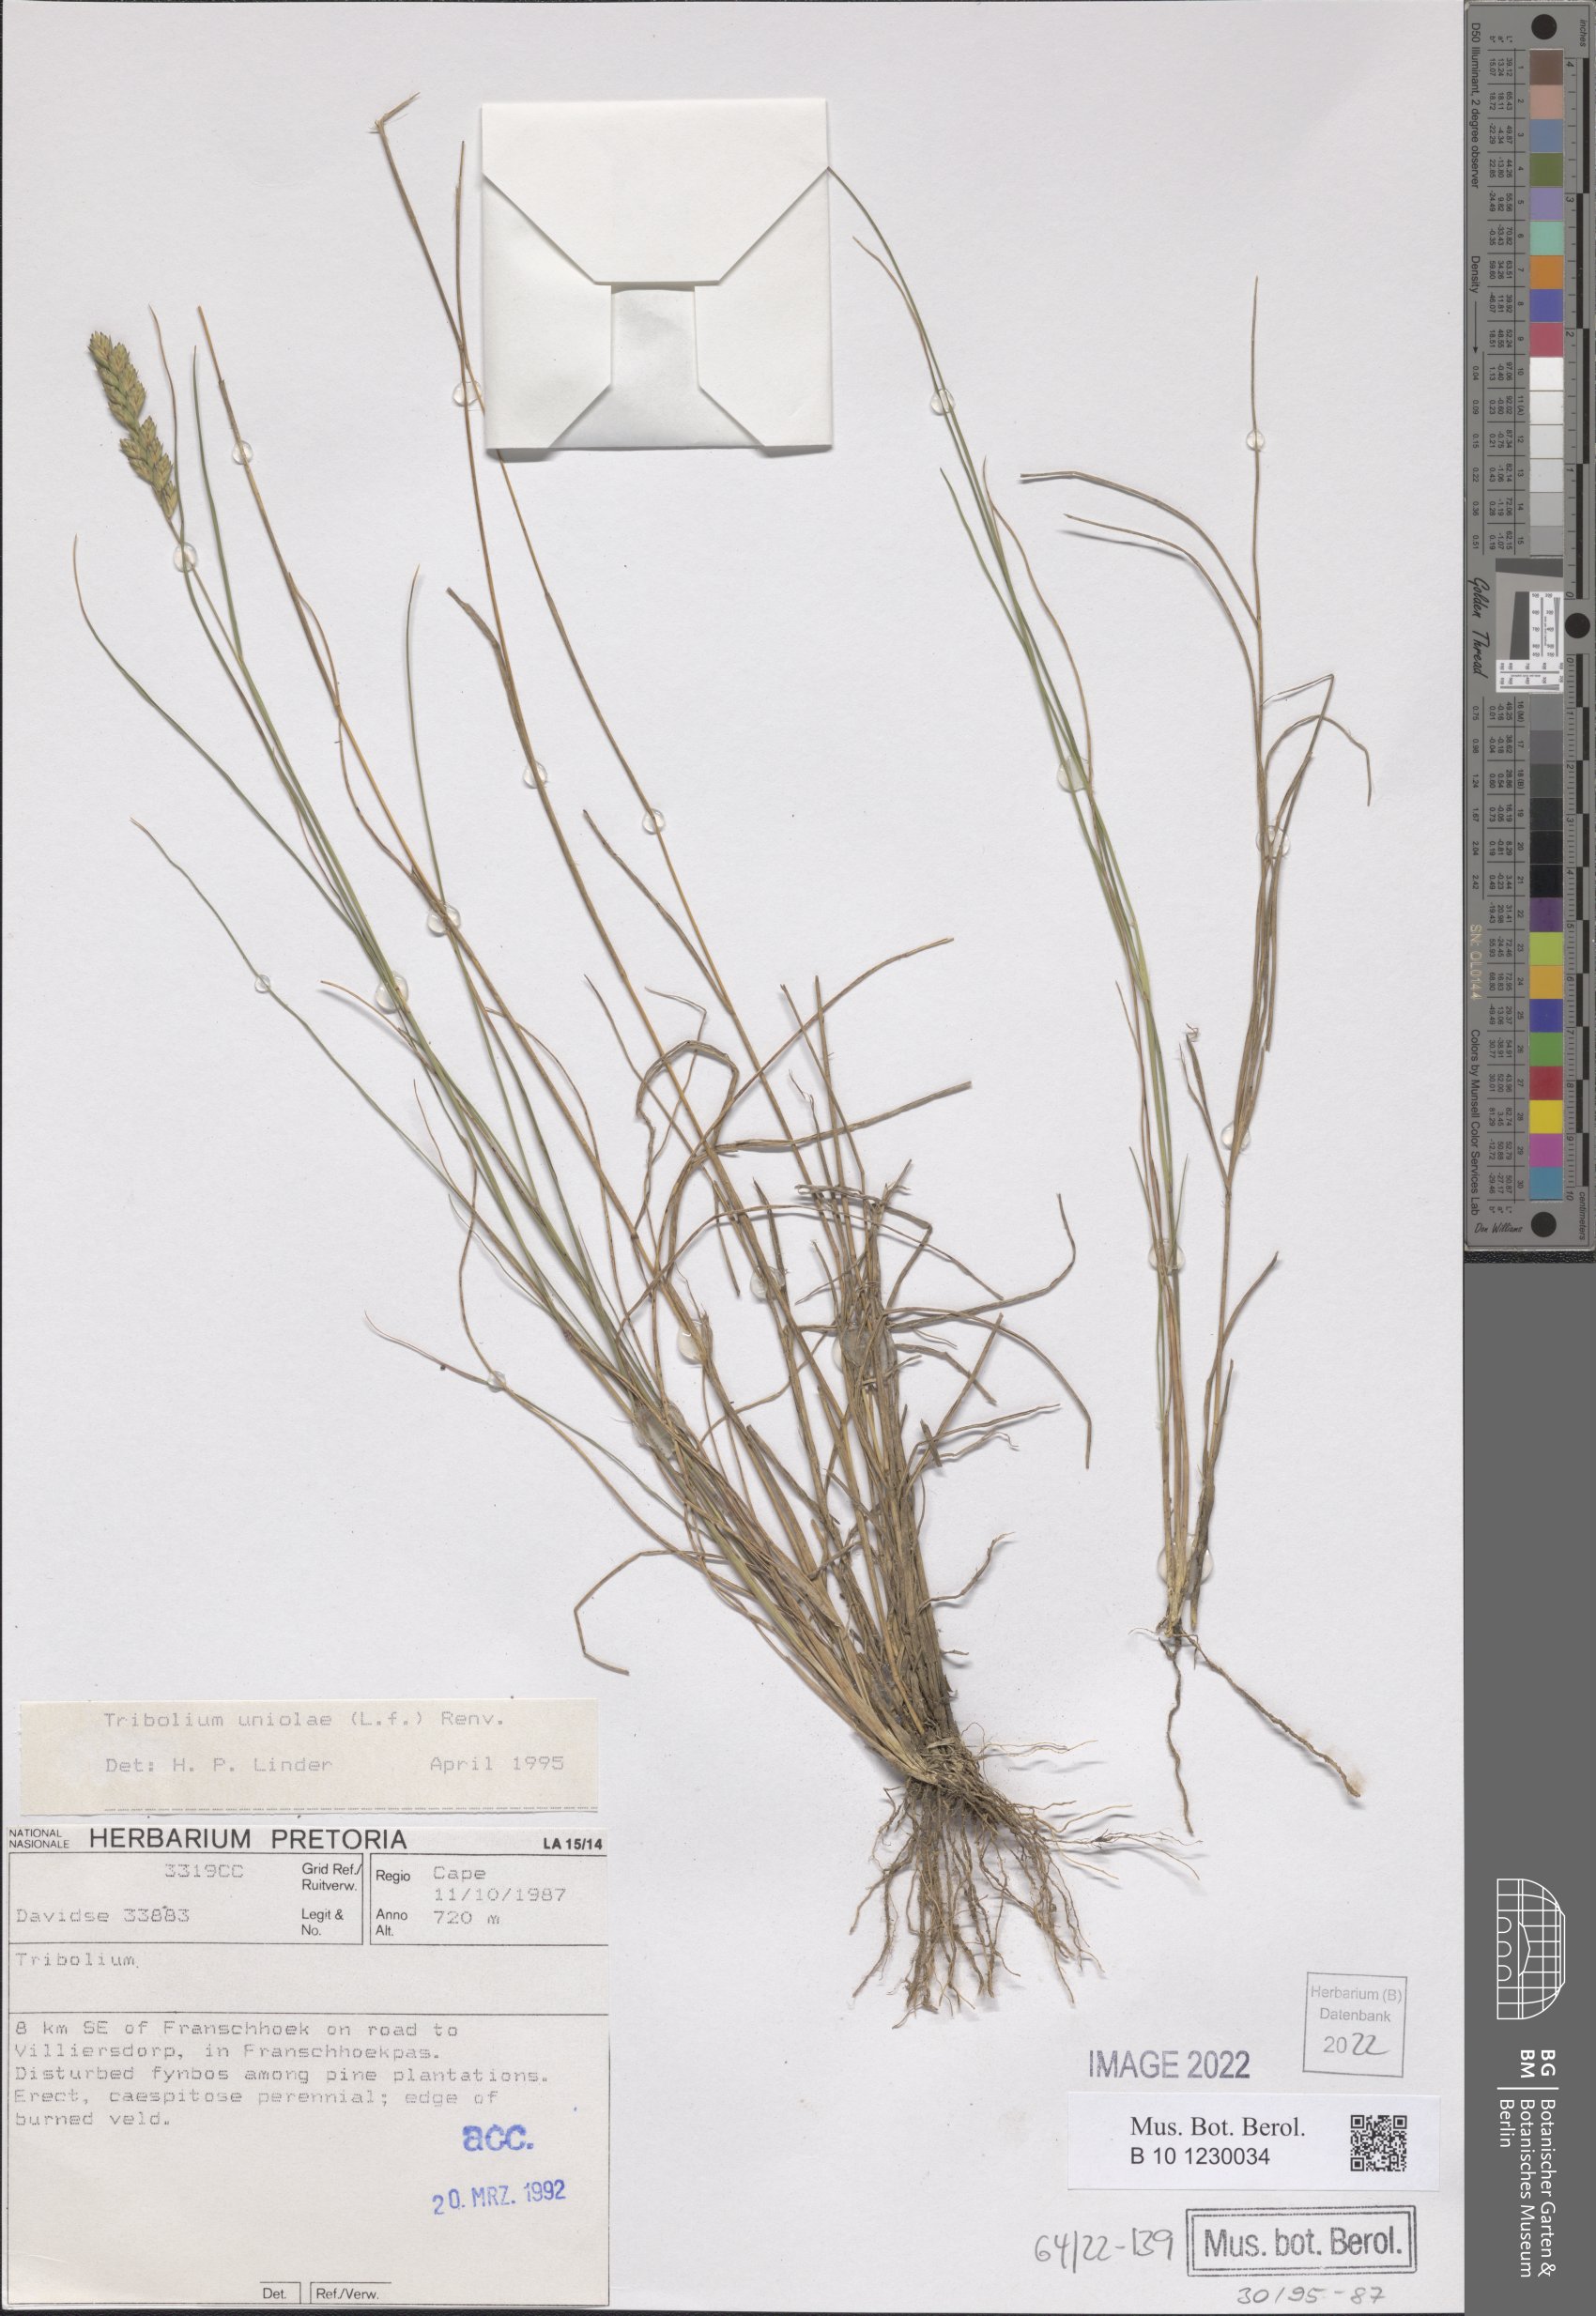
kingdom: Plantae
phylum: Tracheophyta
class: Liliopsida
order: Poales
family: Poaceae
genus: Tribolium
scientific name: Tribolium uniolae
